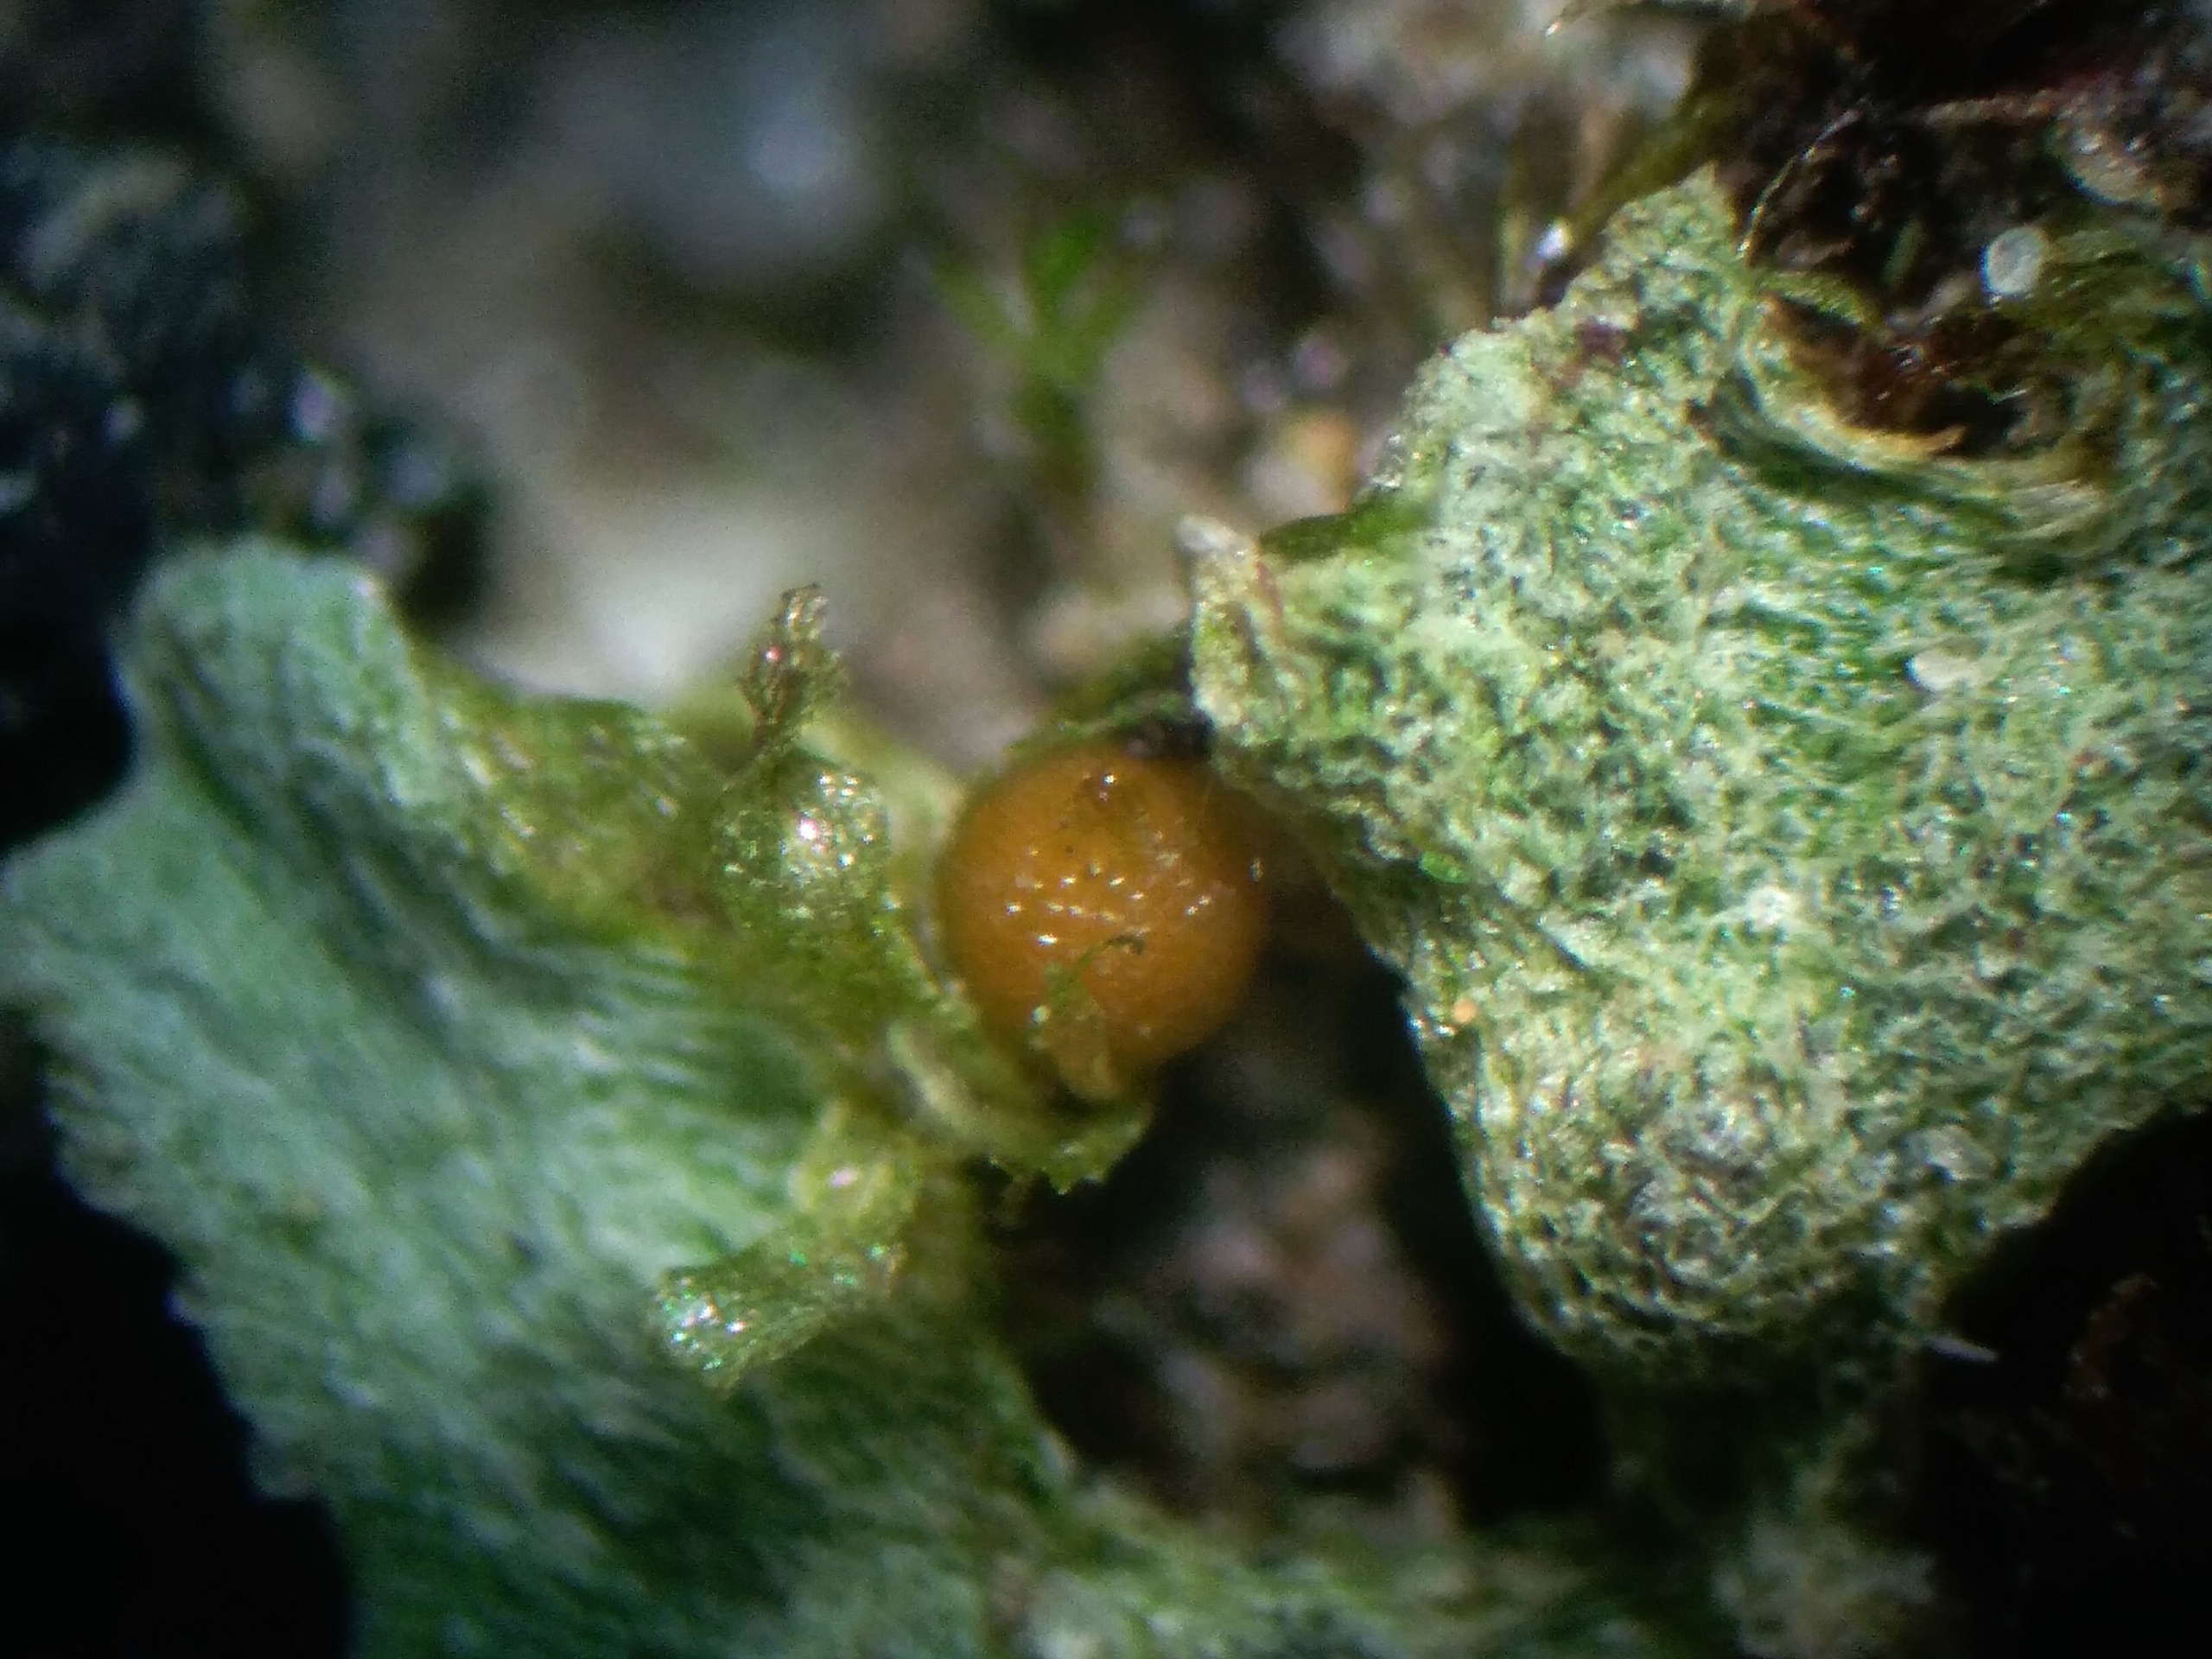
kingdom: Plantae
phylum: Bryophyta
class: Bryopsida
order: Funariales
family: Funariaceae
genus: Physcomitrium
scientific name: Physcomitrium patens
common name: Bulet muddermos
